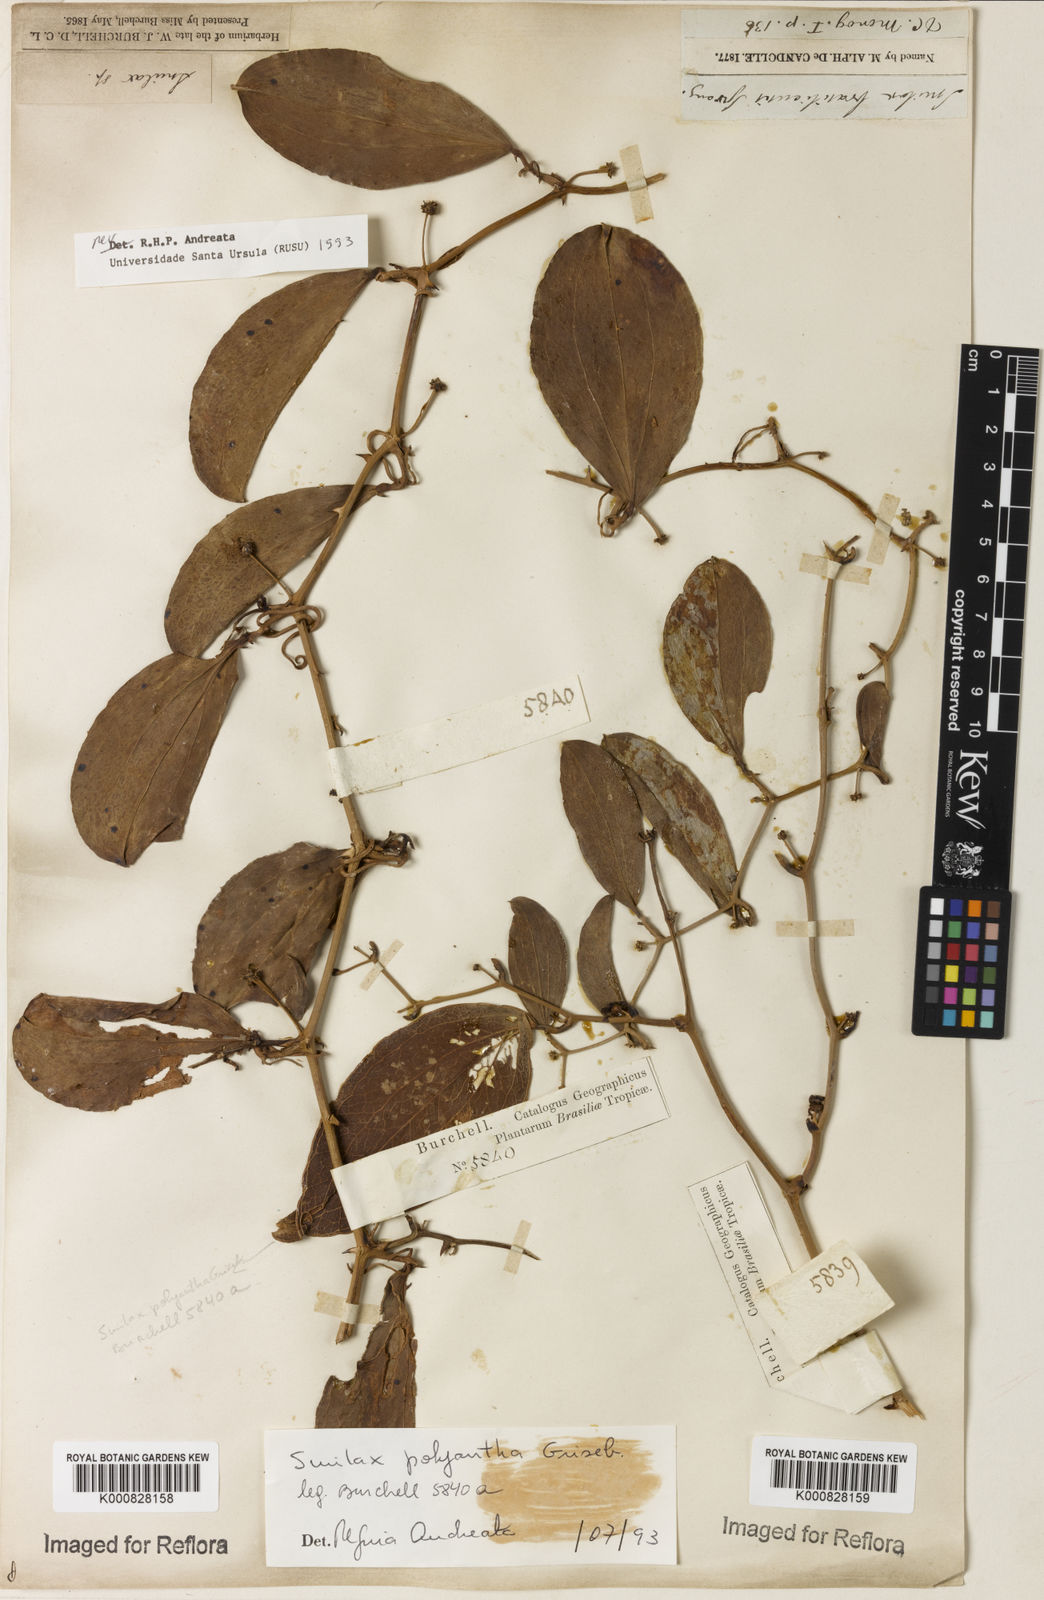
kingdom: Plantae
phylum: Tracheophyta
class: Liliopsida
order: Liliales
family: Smilacaceae
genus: Smilax
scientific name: Smilax polyantha
